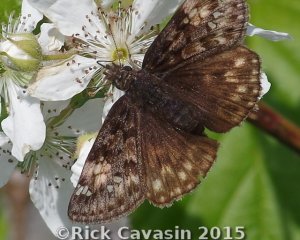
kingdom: Animalia
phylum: Arthropoda
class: Insecta
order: Lepidoptera
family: Hesperiidae
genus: Gesta
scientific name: Gesta
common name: Juvenal's Duskywing
